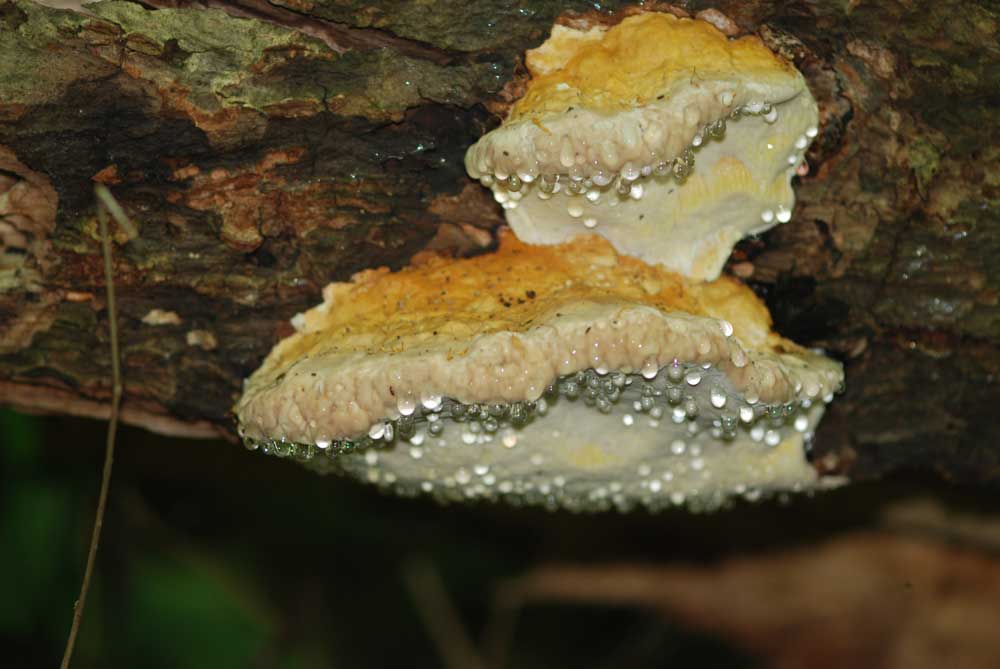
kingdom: Fungi
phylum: Basidiomycota
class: Agaricomycetes
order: Polyporales
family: Fomitopsidaceae
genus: Fomitopsis
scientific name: Fomitopsis pinicola
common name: randbæltet hovporesvamp
